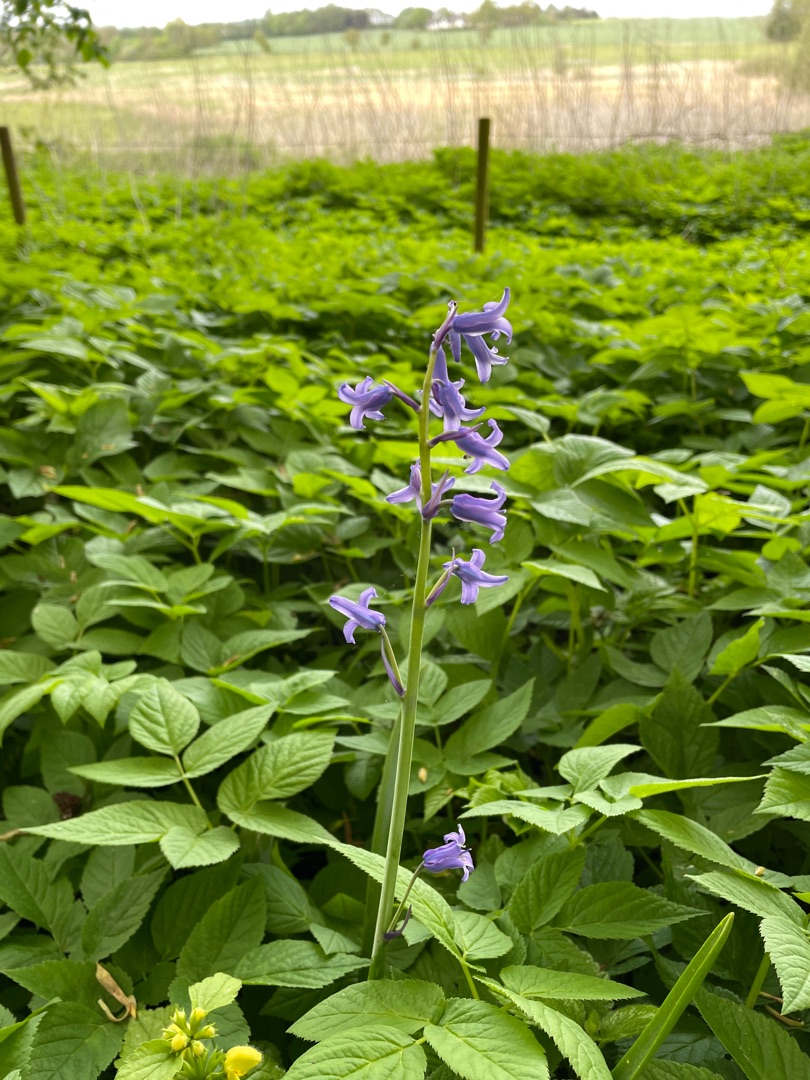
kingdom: Plantae
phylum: Tracheophyta
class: Liliopsida
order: Asparagales
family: Asparagaceae
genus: Hyacinthoides
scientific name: Hyacinthoides massartiana
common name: Hybrid-klokkeskilla
